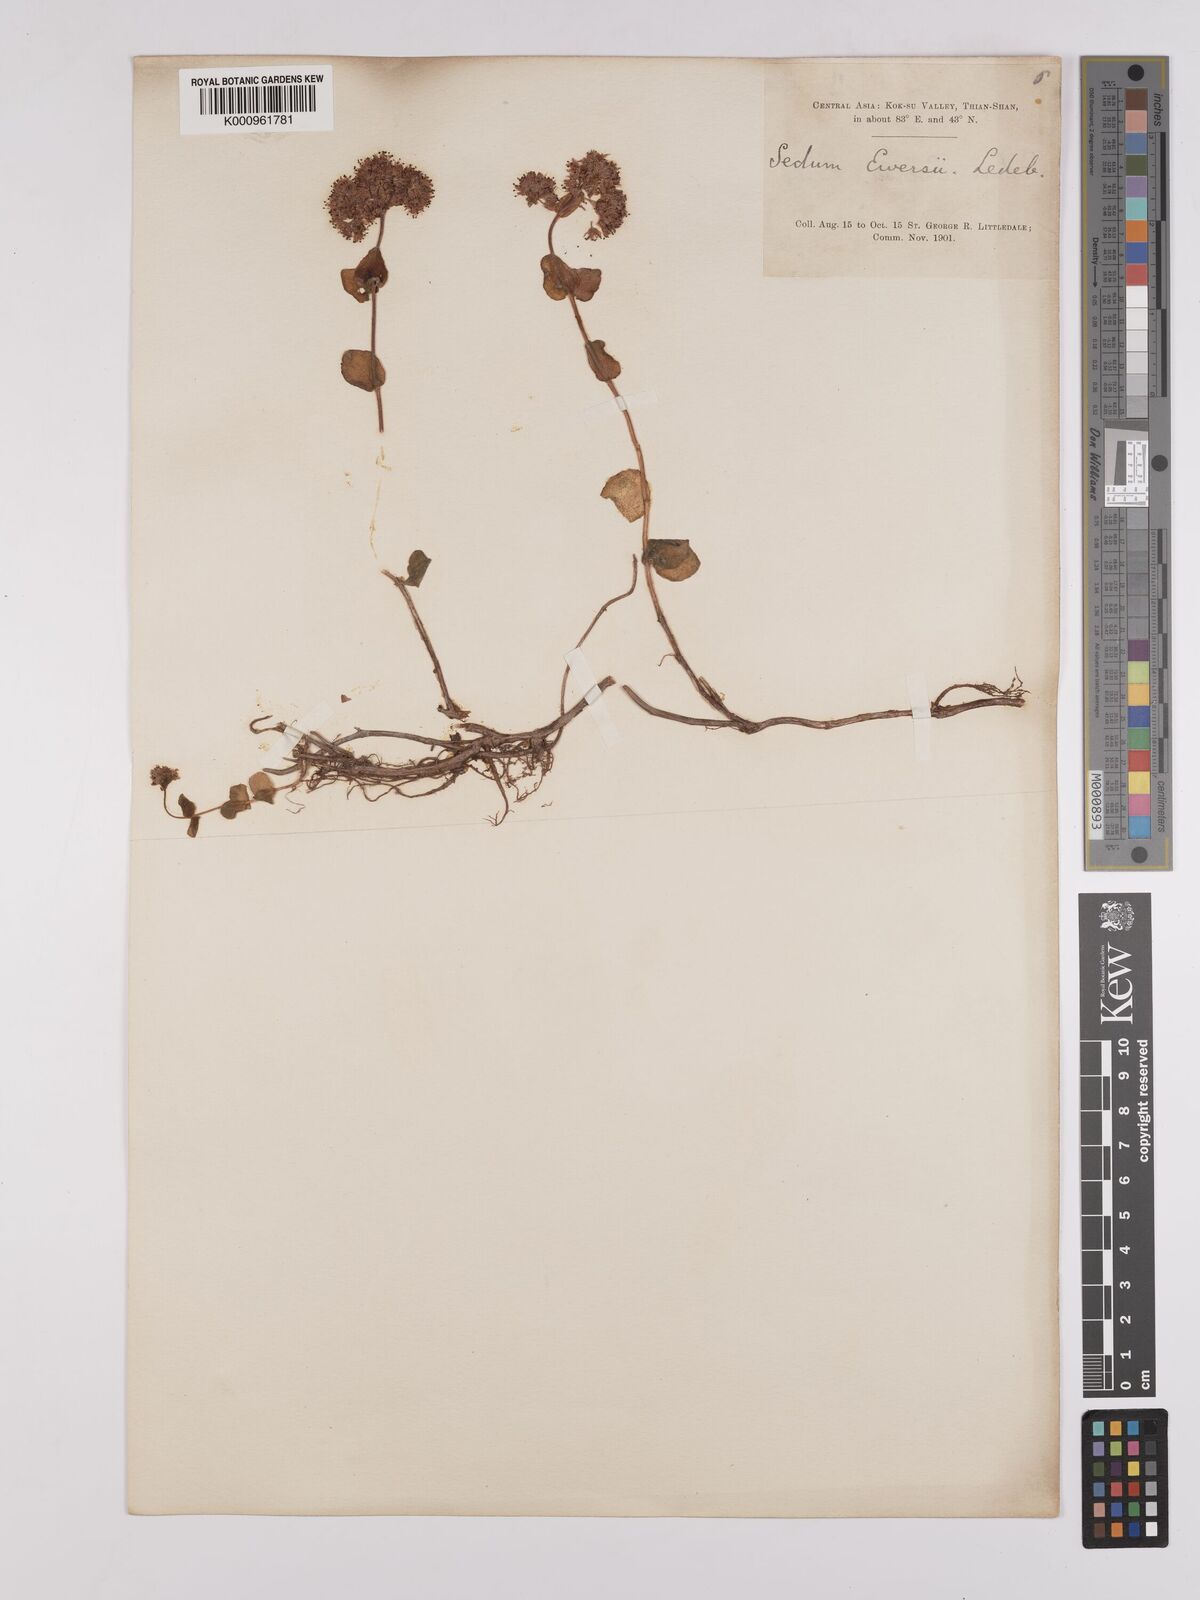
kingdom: Plantae
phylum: Tracheophyta
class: Magnoliopsida
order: Saxifragales
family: Crassulaceae
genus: Sedum
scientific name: Sedum
